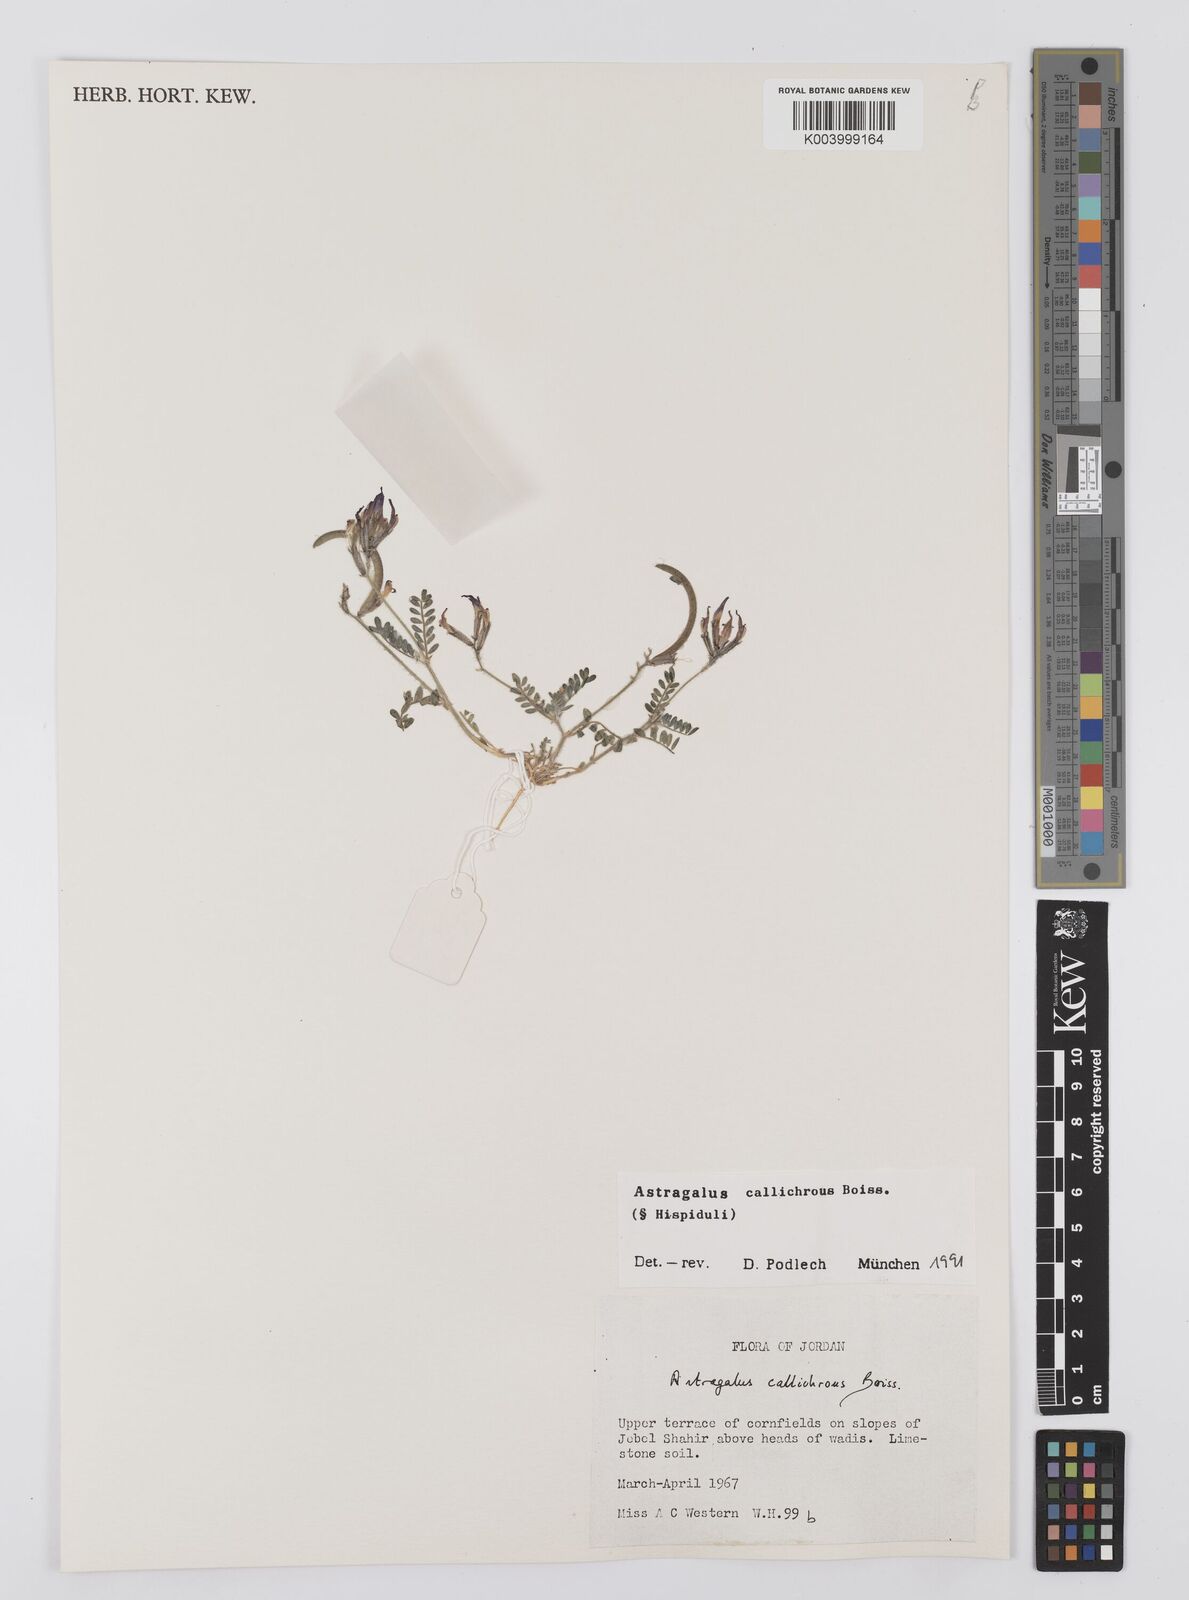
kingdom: Plantae
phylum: Tracheophyta
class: Magnoliopsida
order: Fabales
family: Fabaceae
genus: Astragalus
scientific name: Astragalus callichrous
